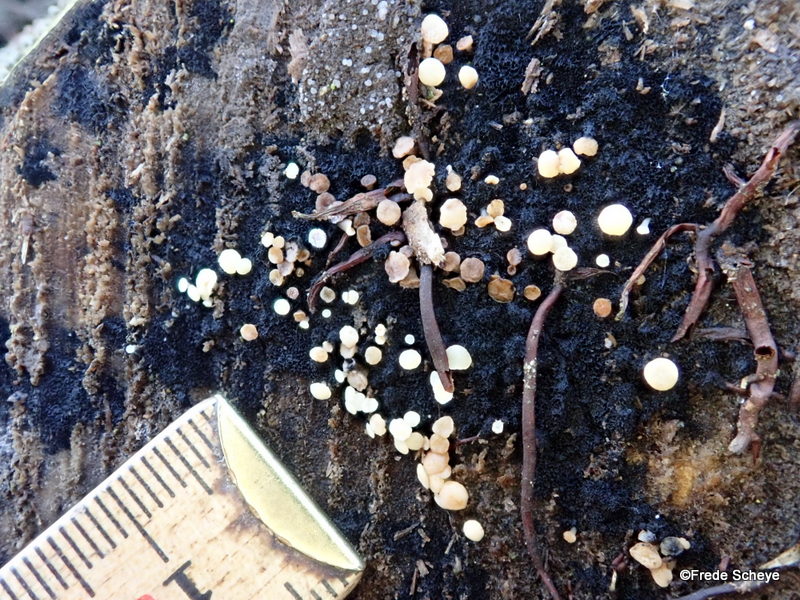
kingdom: Fungi
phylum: Ascomycota
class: Leotiomycetes
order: Helotiales
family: Helotiaceae
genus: Bispora
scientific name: Bispora pallescens
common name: måtte-snitskive
